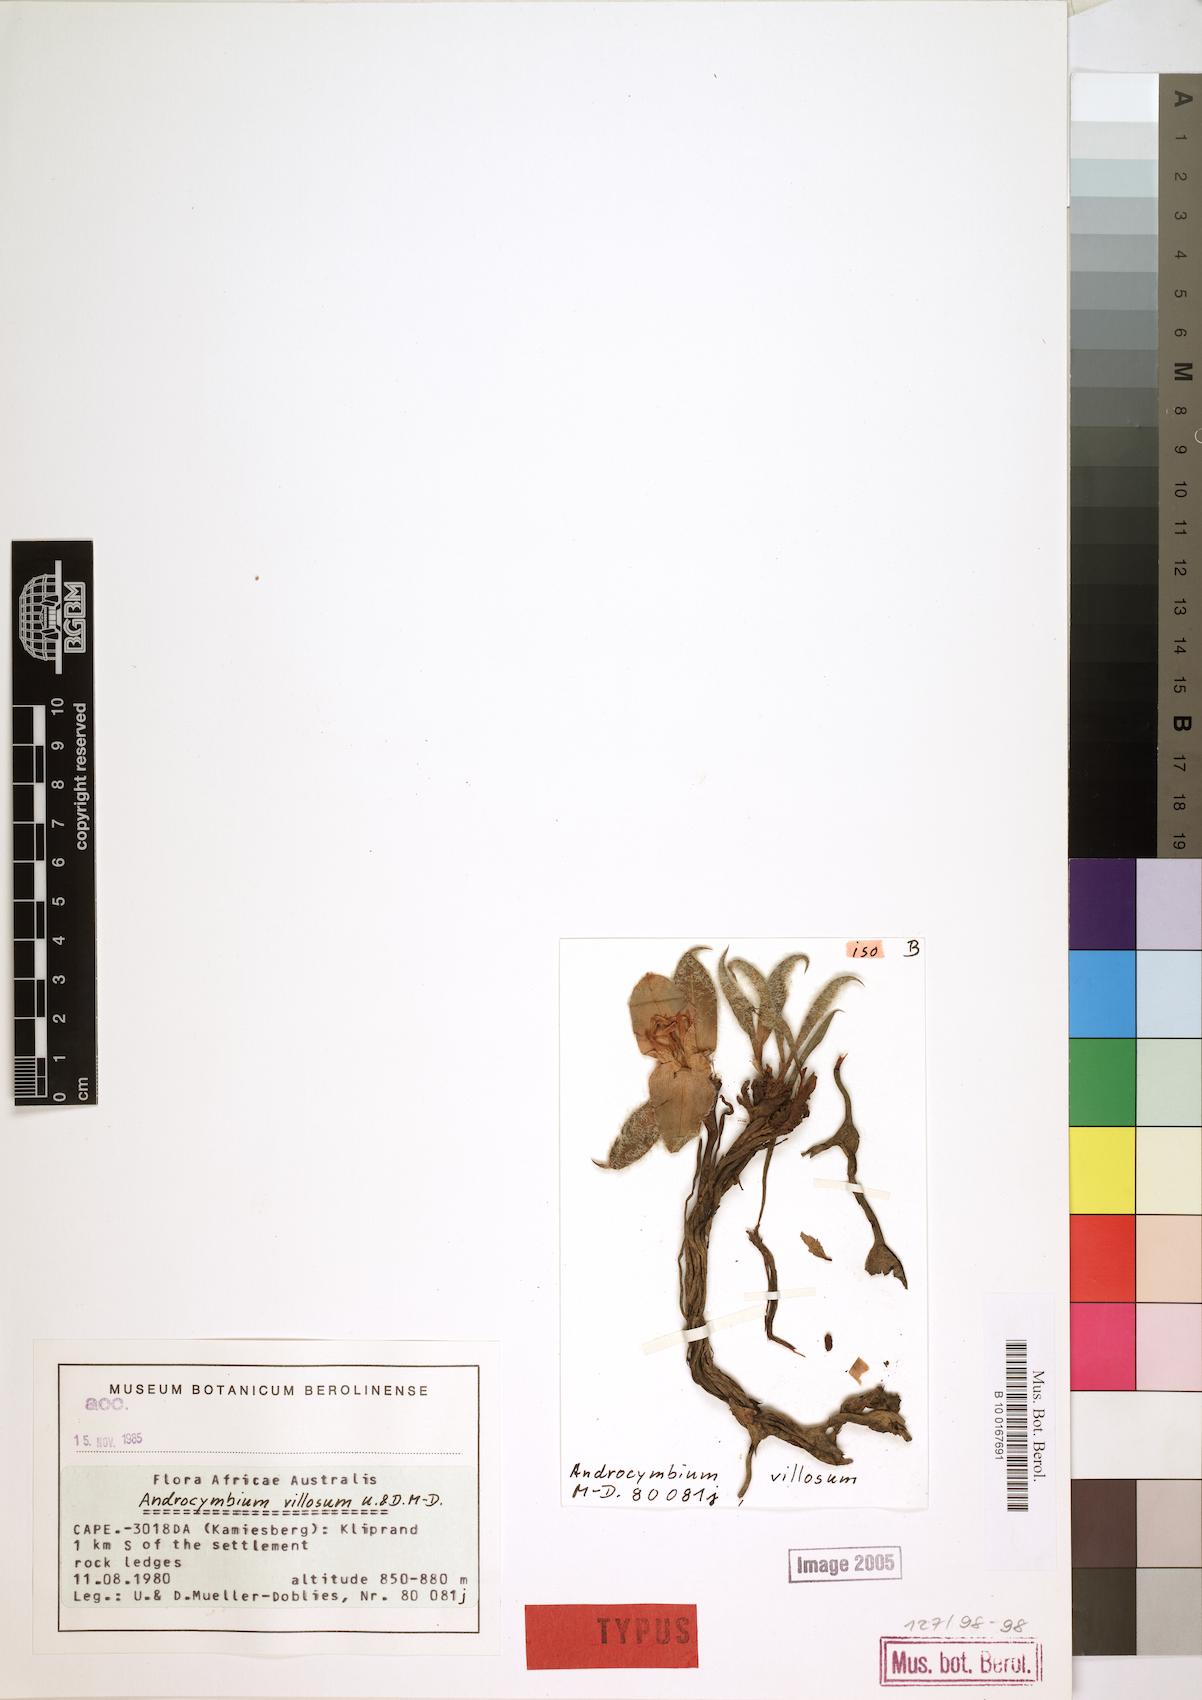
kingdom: Plantae
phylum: Tracheophyta
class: Liliopsida
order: Liliales
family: Colchicaceae
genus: Colchicum
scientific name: Colchicum villosum
